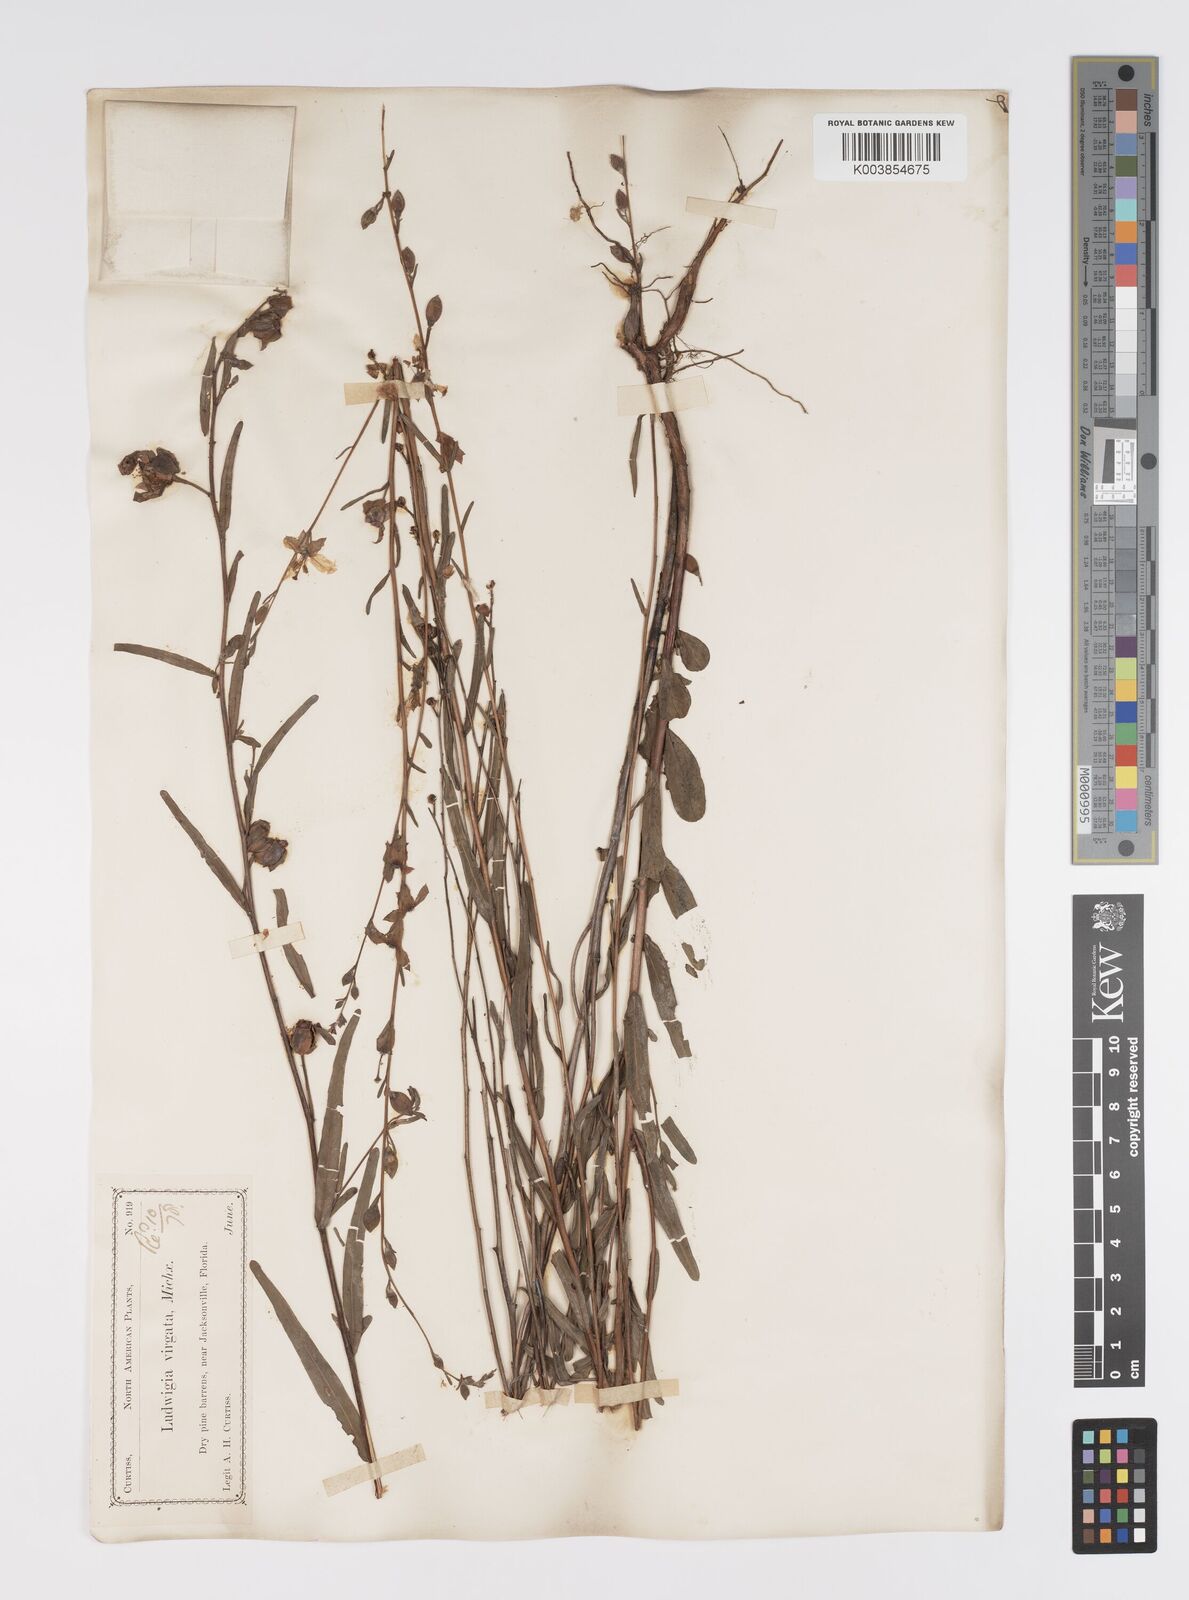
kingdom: Plantae
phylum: Tracheophyta
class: Magnoliopsida
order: Myrtales
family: Onagraceae
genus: Ludwigia
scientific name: Ludwigia virgata
